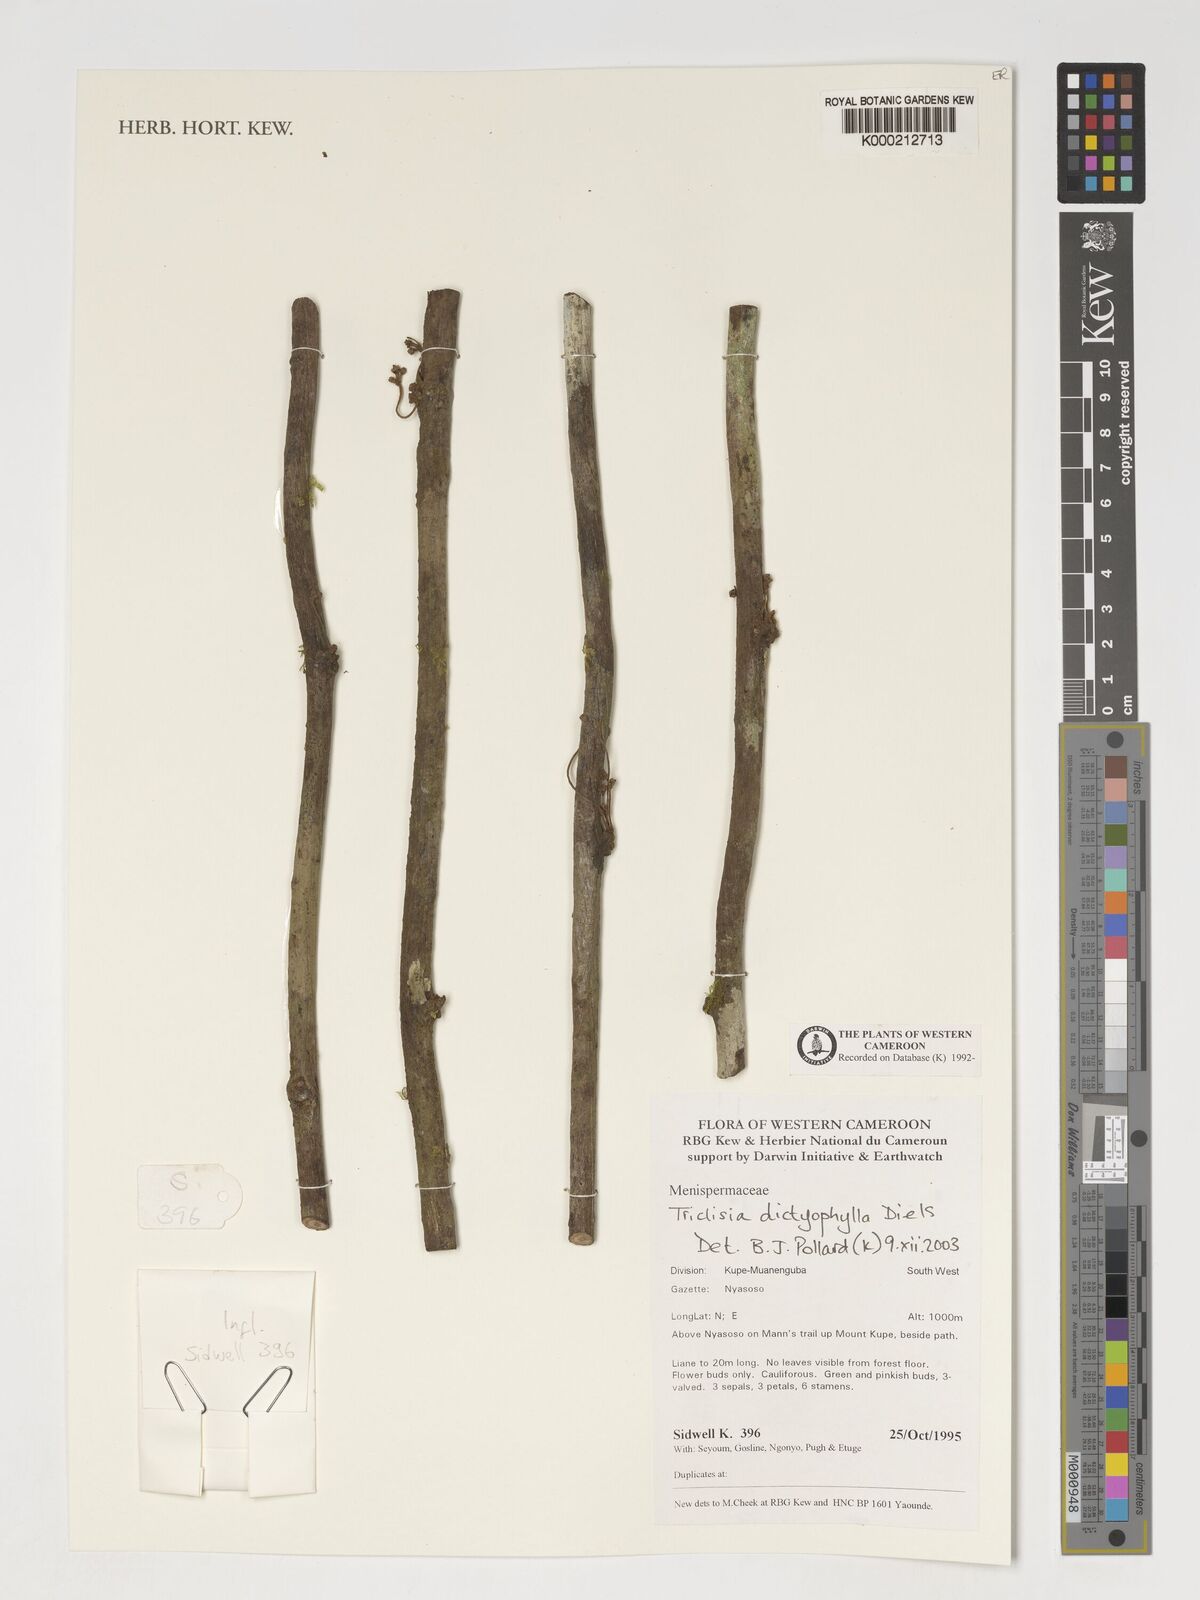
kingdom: Plantae
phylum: Tracheophyta
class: Magnoliopsida
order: Ranunculales
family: Menispermaceae
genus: Triclisia
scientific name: Triclisia dictyophylla
